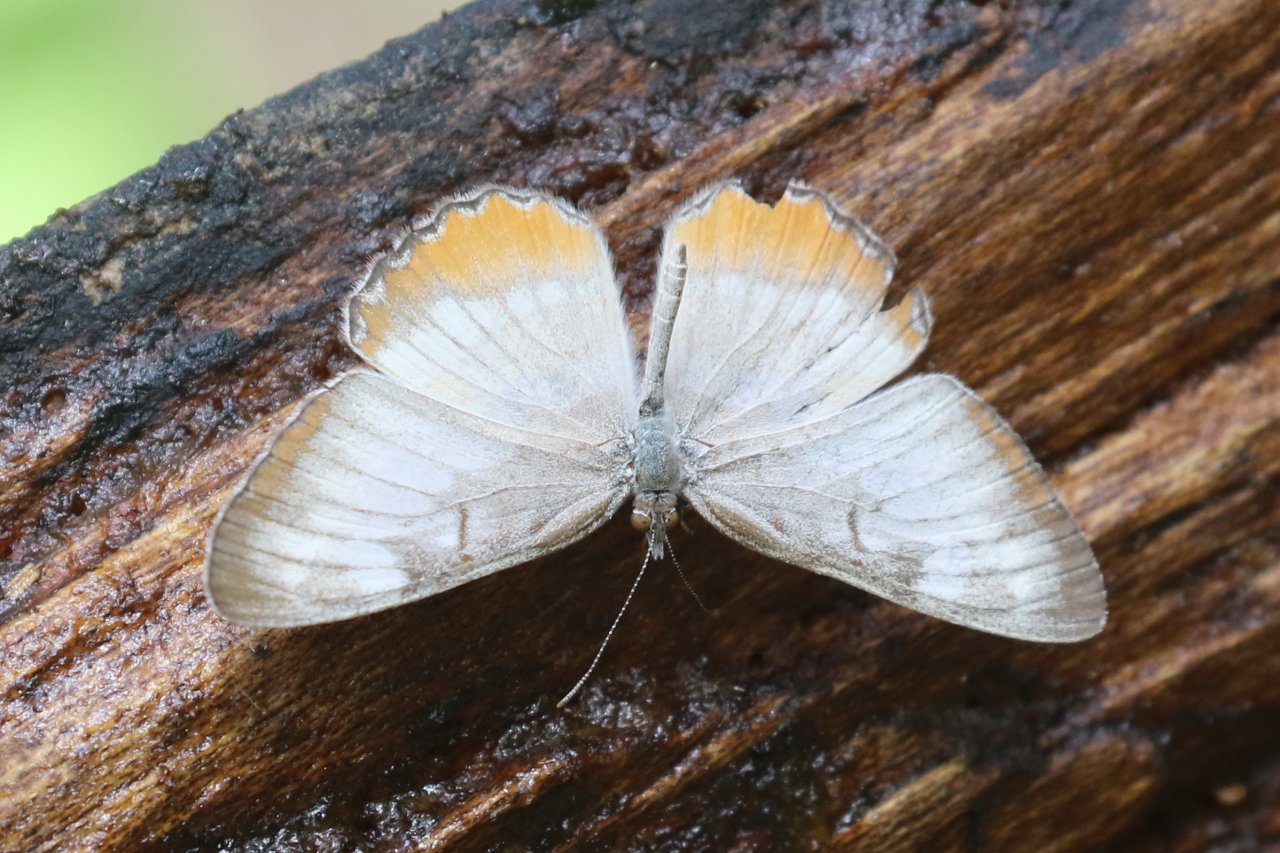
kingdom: Animalia
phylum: Arthropoda
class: Insecta
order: Lepidoptera
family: Nymphalidae
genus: Mestra
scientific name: Mestra amymone
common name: Common Mestra
